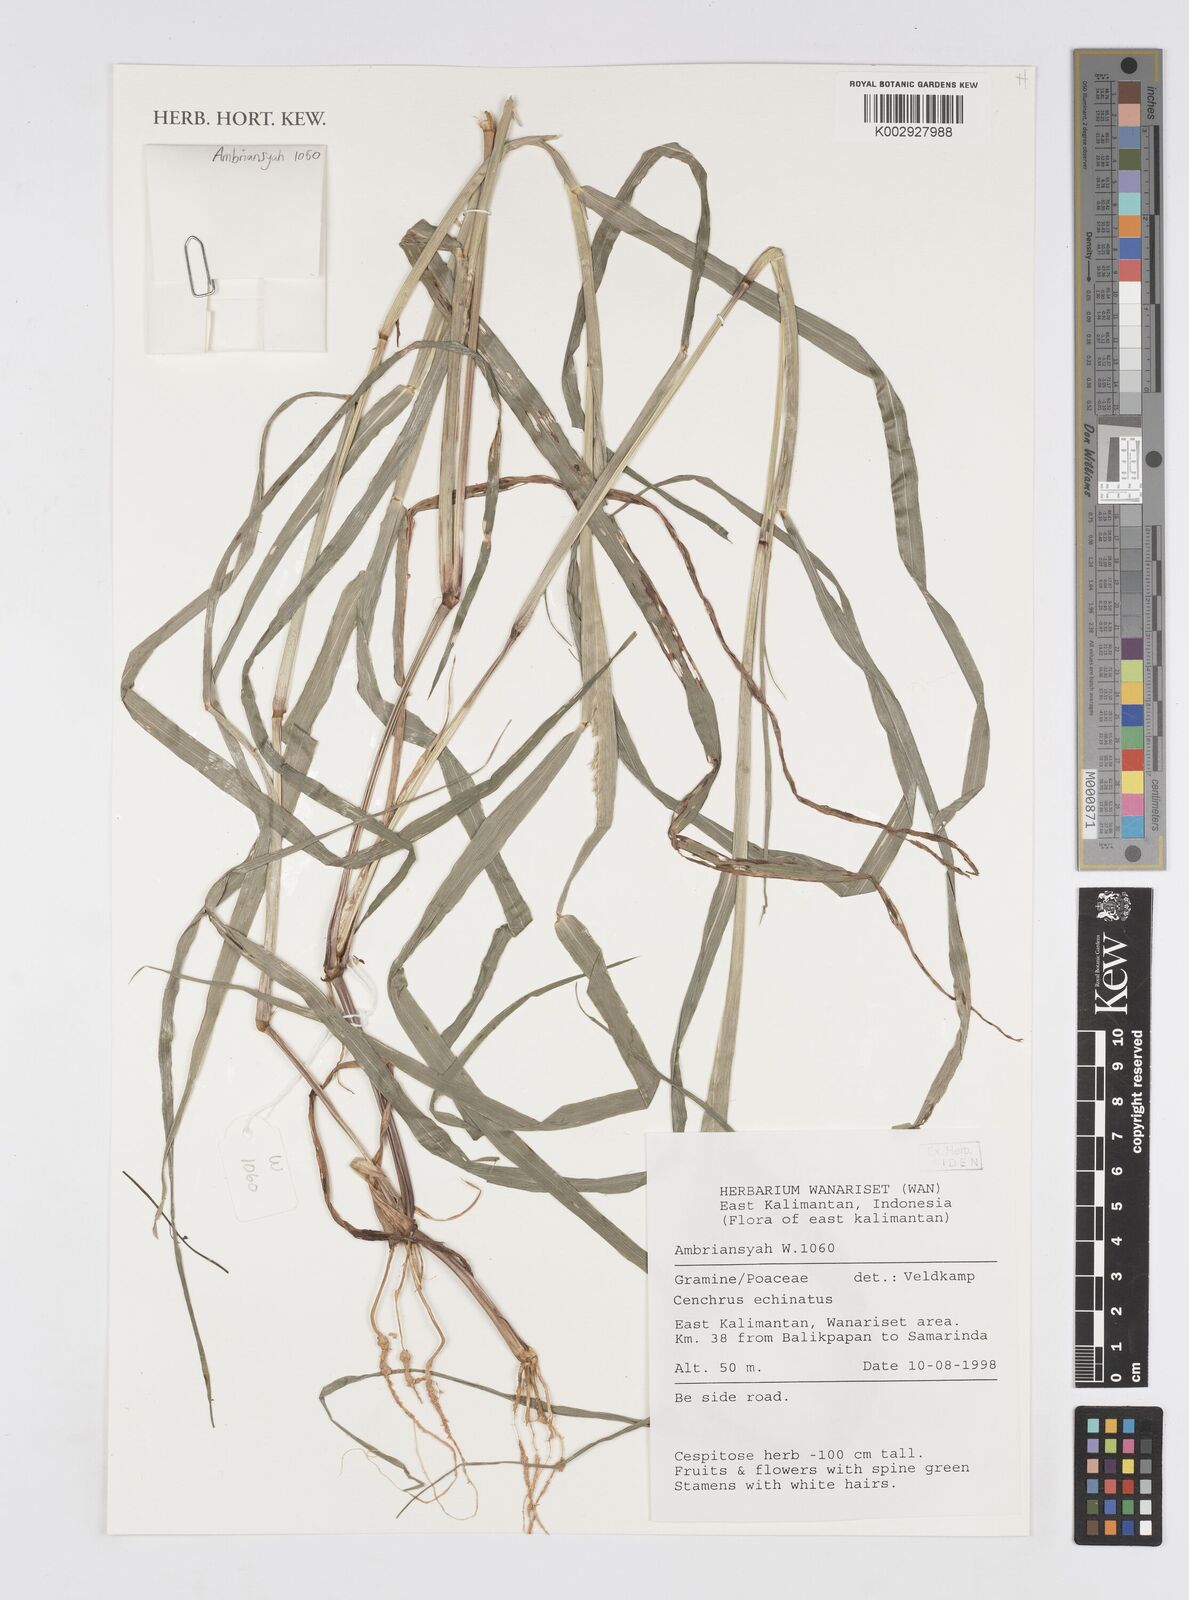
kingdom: Plantae
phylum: Tracheophyta
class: Liliopsida
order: Poales
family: Poaceae
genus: Cenchrus
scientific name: Cenchrus echinatus
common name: Southern sandbur
